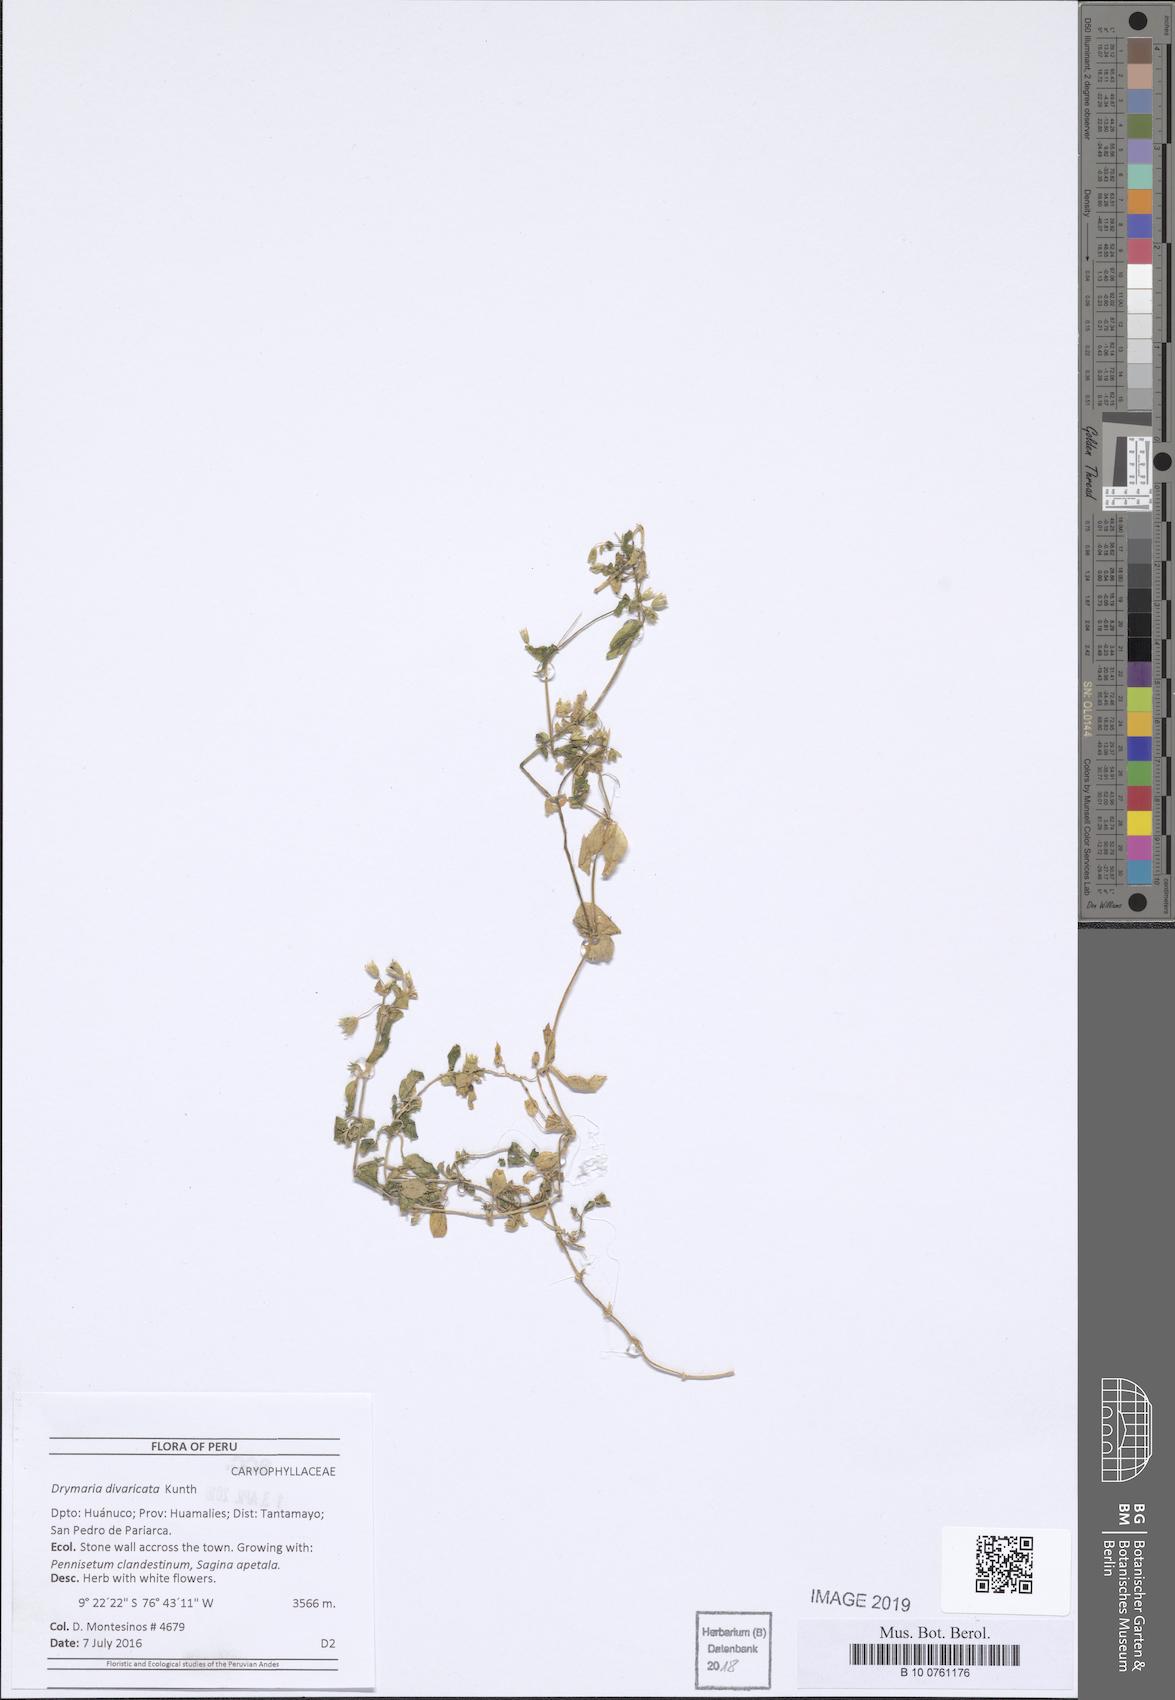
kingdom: Plantae
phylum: Tracheophyta
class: Magnoliopsida
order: Caryophyllales
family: Caryophyllaceae
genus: Drymaria
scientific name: Drymaria divaricata
